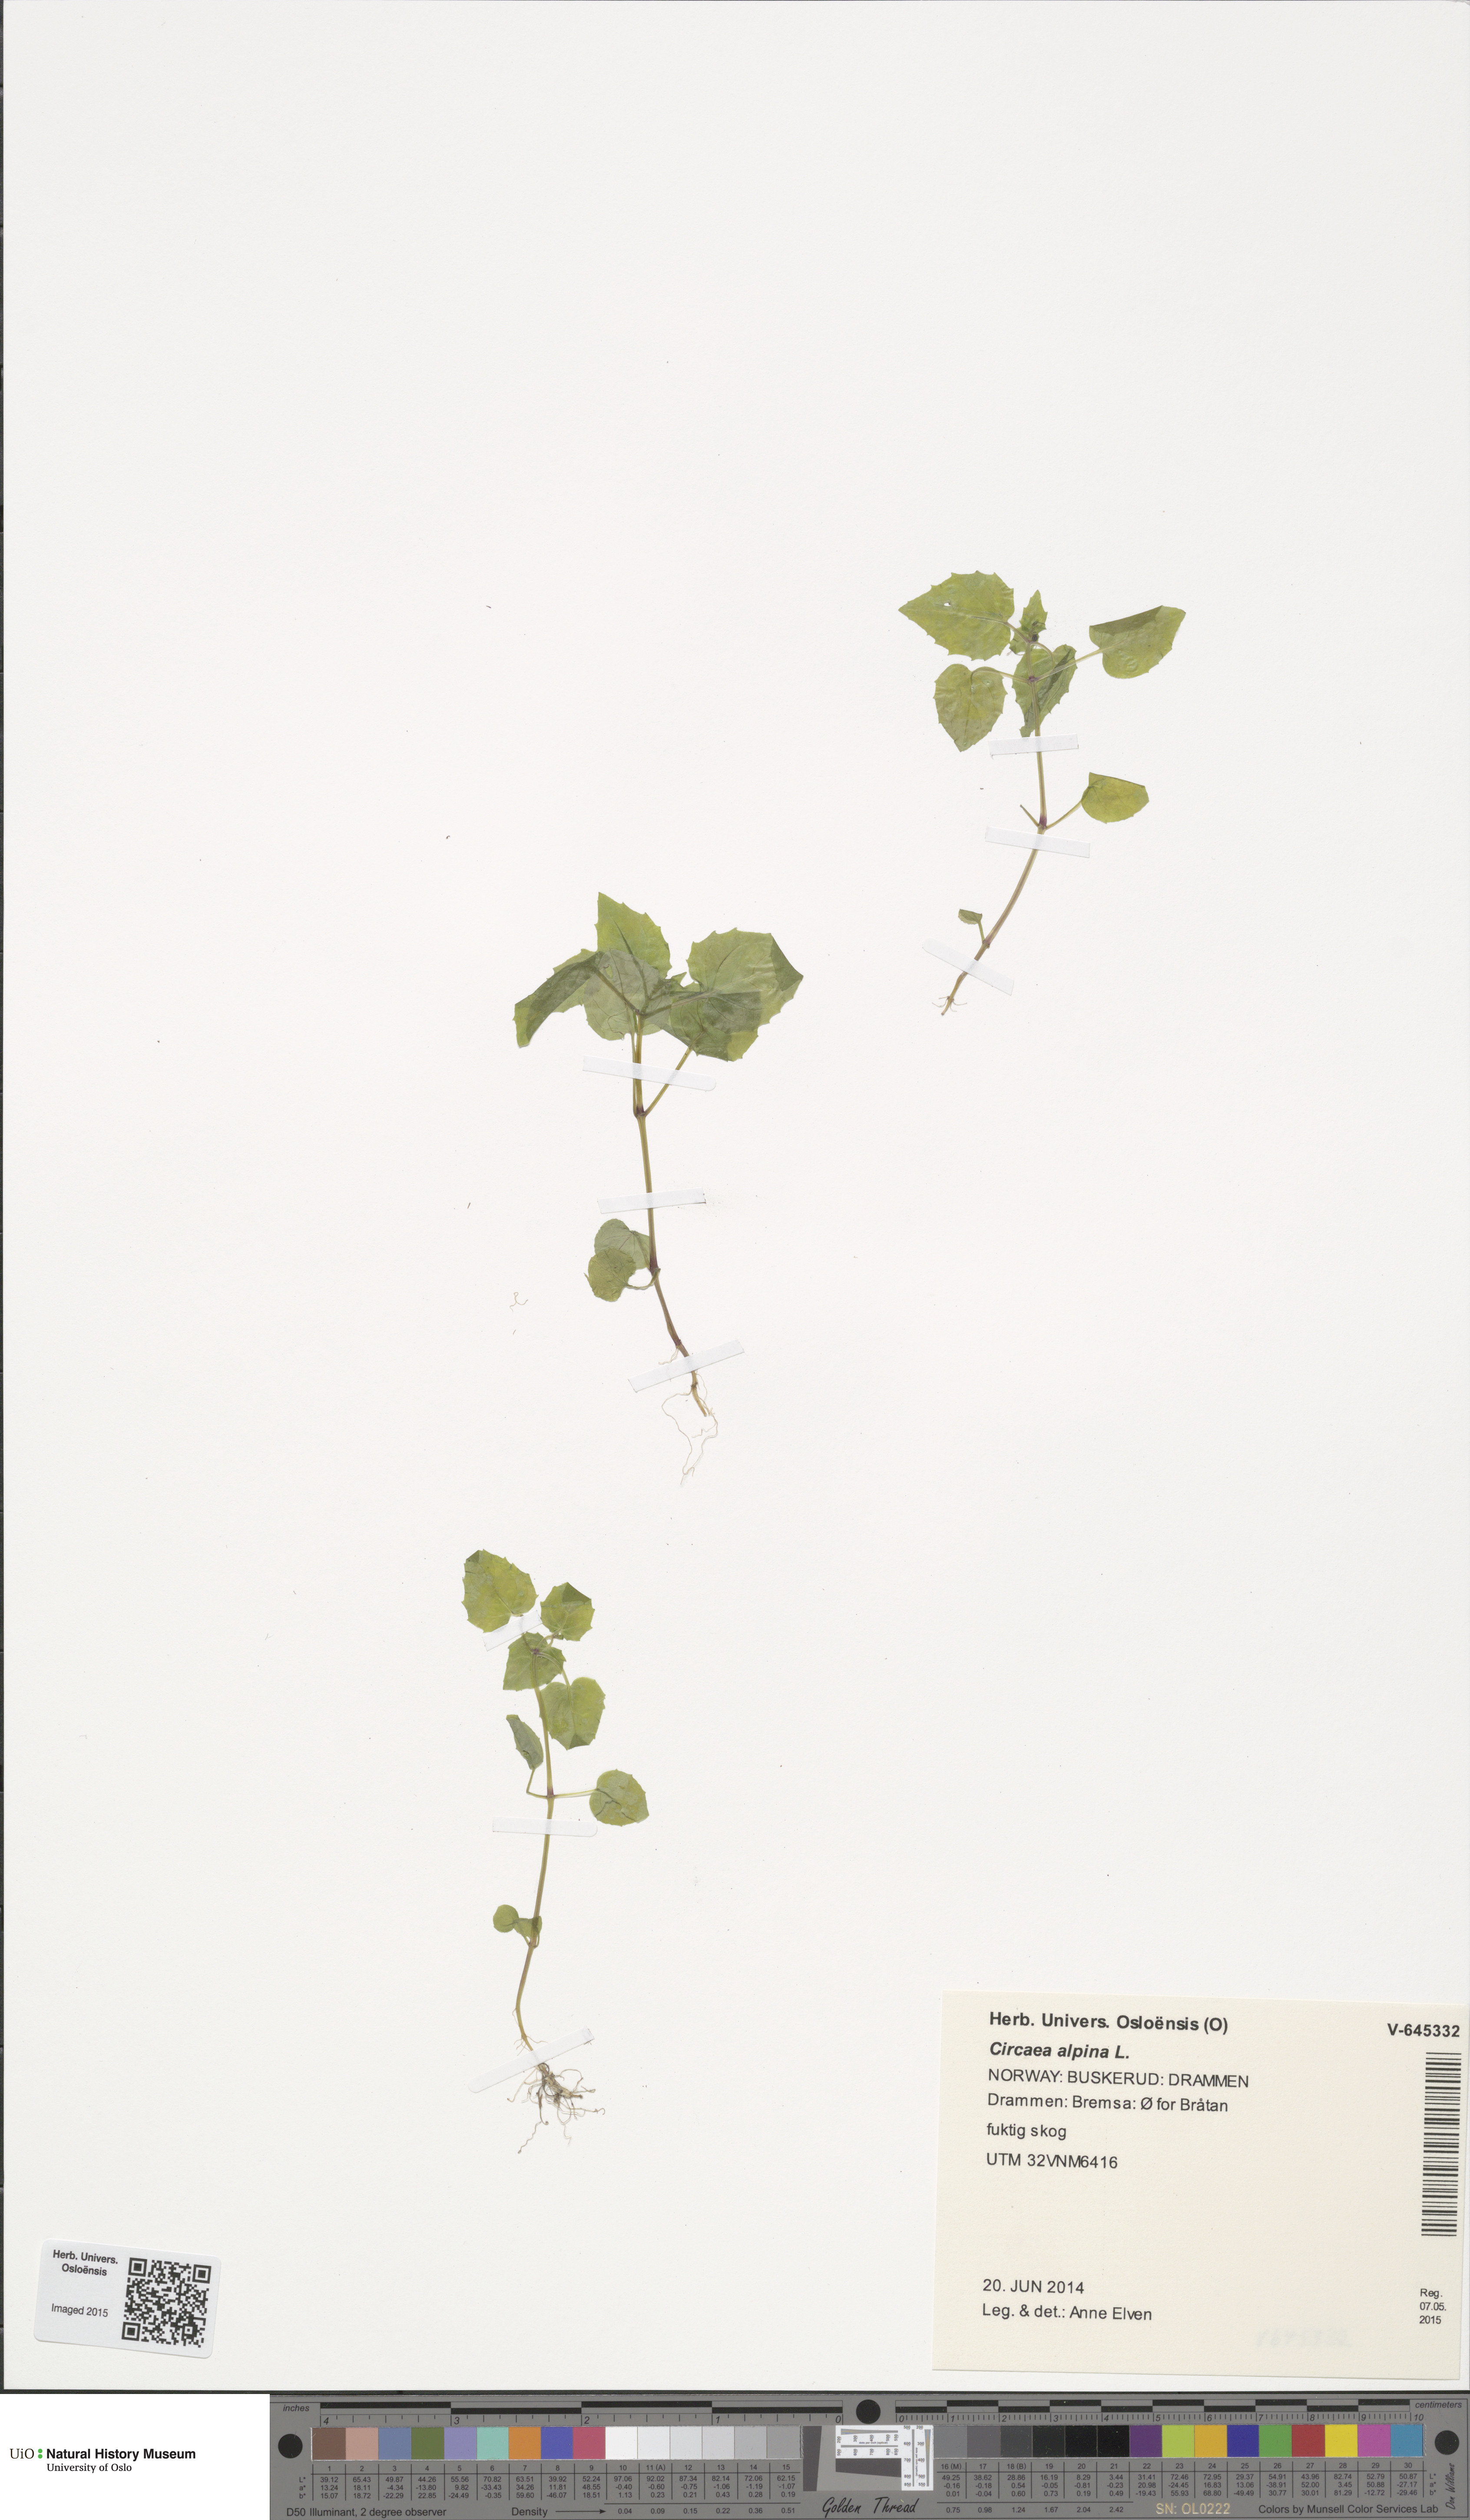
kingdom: Plantae
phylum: Tracheophyta
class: Magnoliopsida
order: Myrtales
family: Onagraceae
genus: Circaea
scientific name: Circaea alpina
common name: Alpine enchanter's-nightshade
